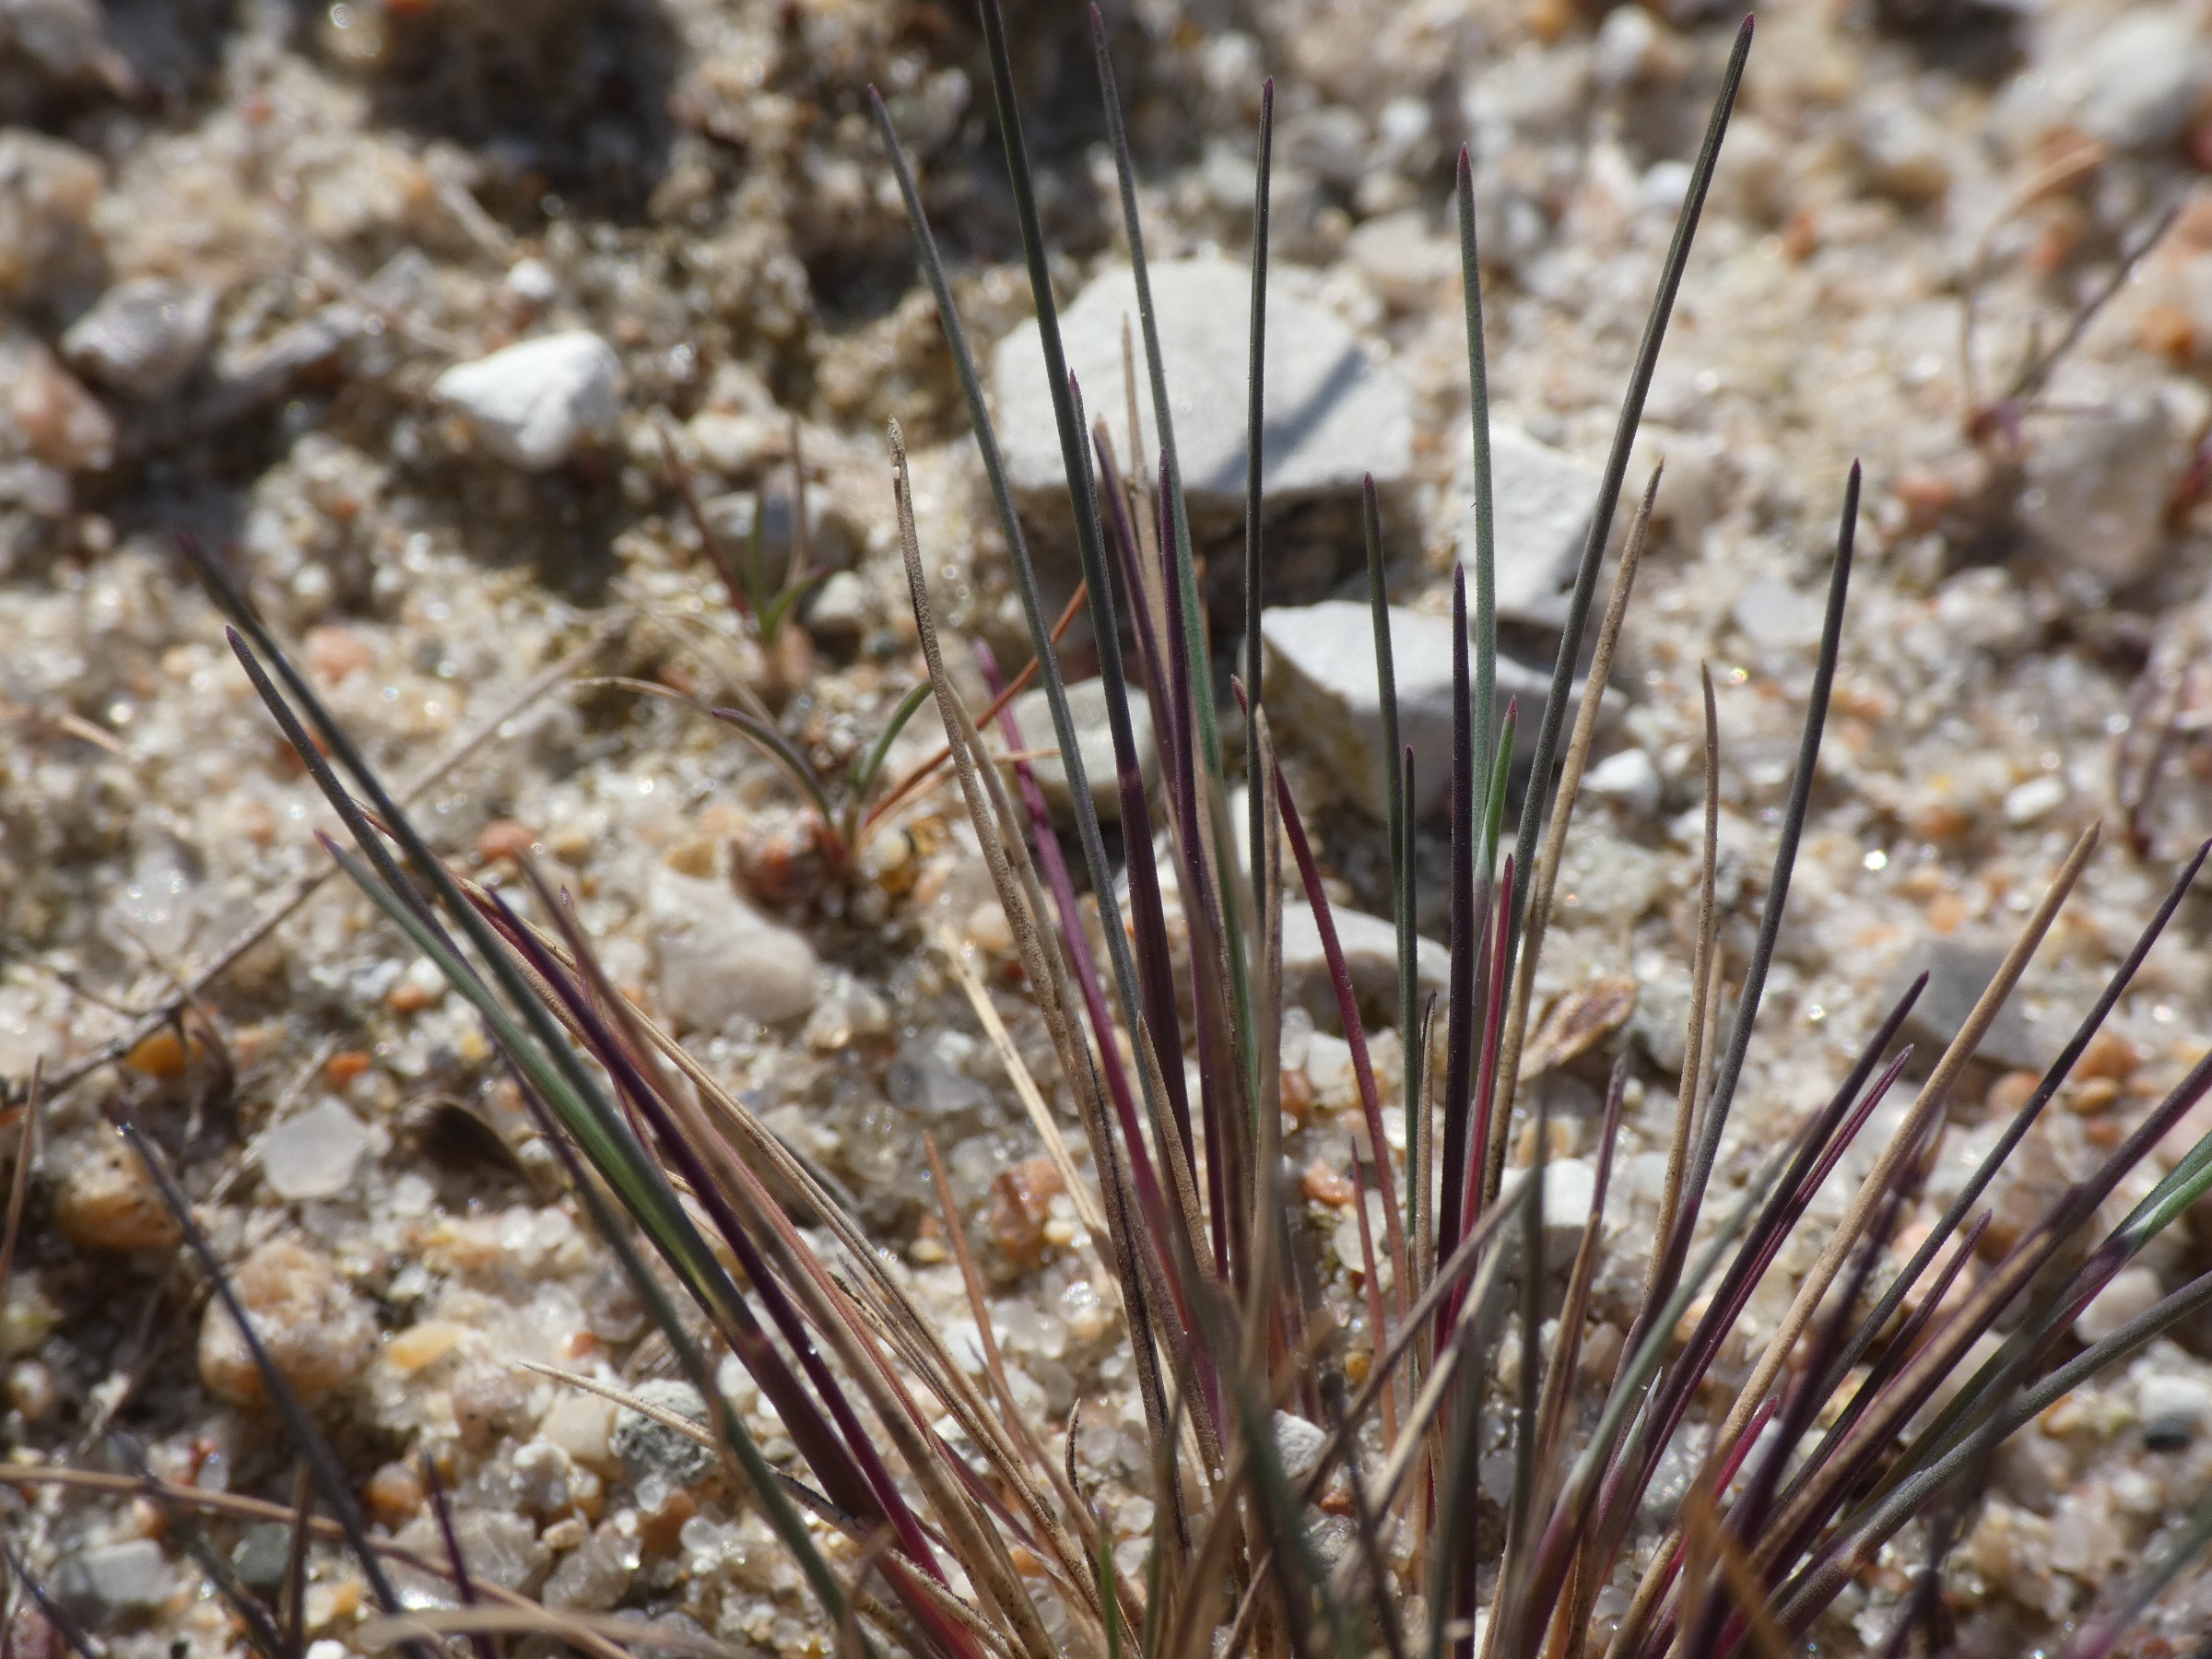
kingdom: Plantae
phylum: Tracheophyta
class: Liliopsida
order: Poales
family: Poaceae
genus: Corynephorus
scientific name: Corynephorus canescens
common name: Sandskæg
